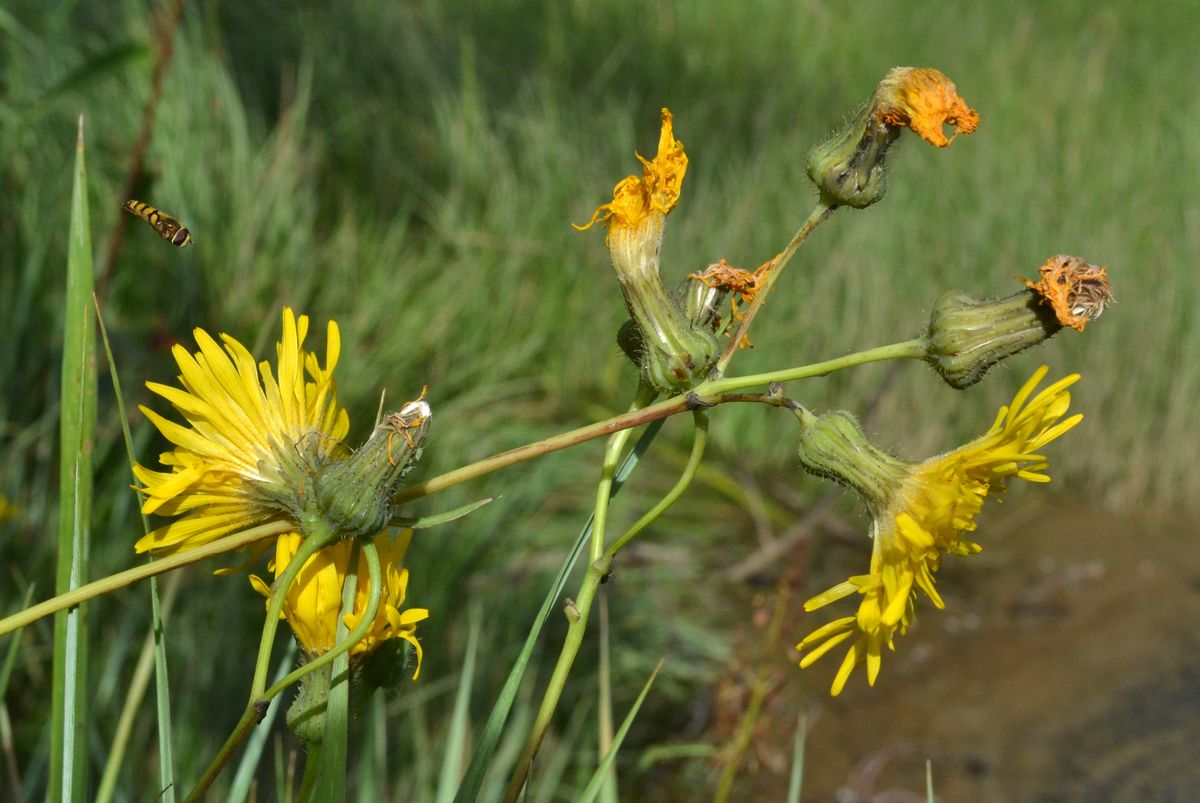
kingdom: Plantae
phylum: Tracheophyta
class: Magnoliopsida
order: Asterales
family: Asteraceae
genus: Sonchus
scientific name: Sonchus arvensis
